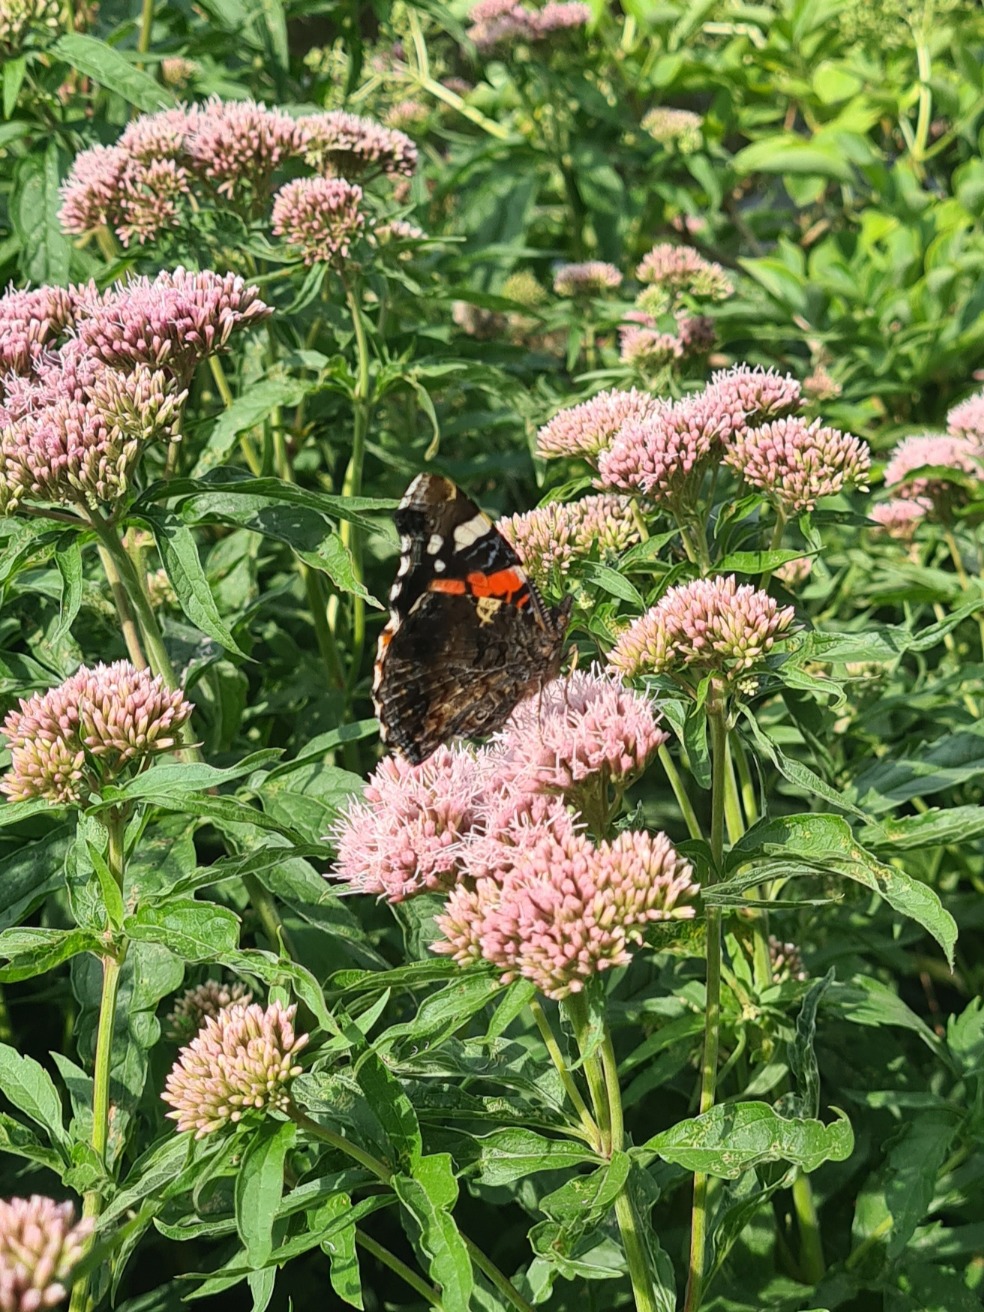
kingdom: Animalia
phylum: Arthropoda
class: Insecta
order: Lepidoptera
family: Nymphalidae
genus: Vanessa
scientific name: Vanessa atalanta
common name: Admiral
